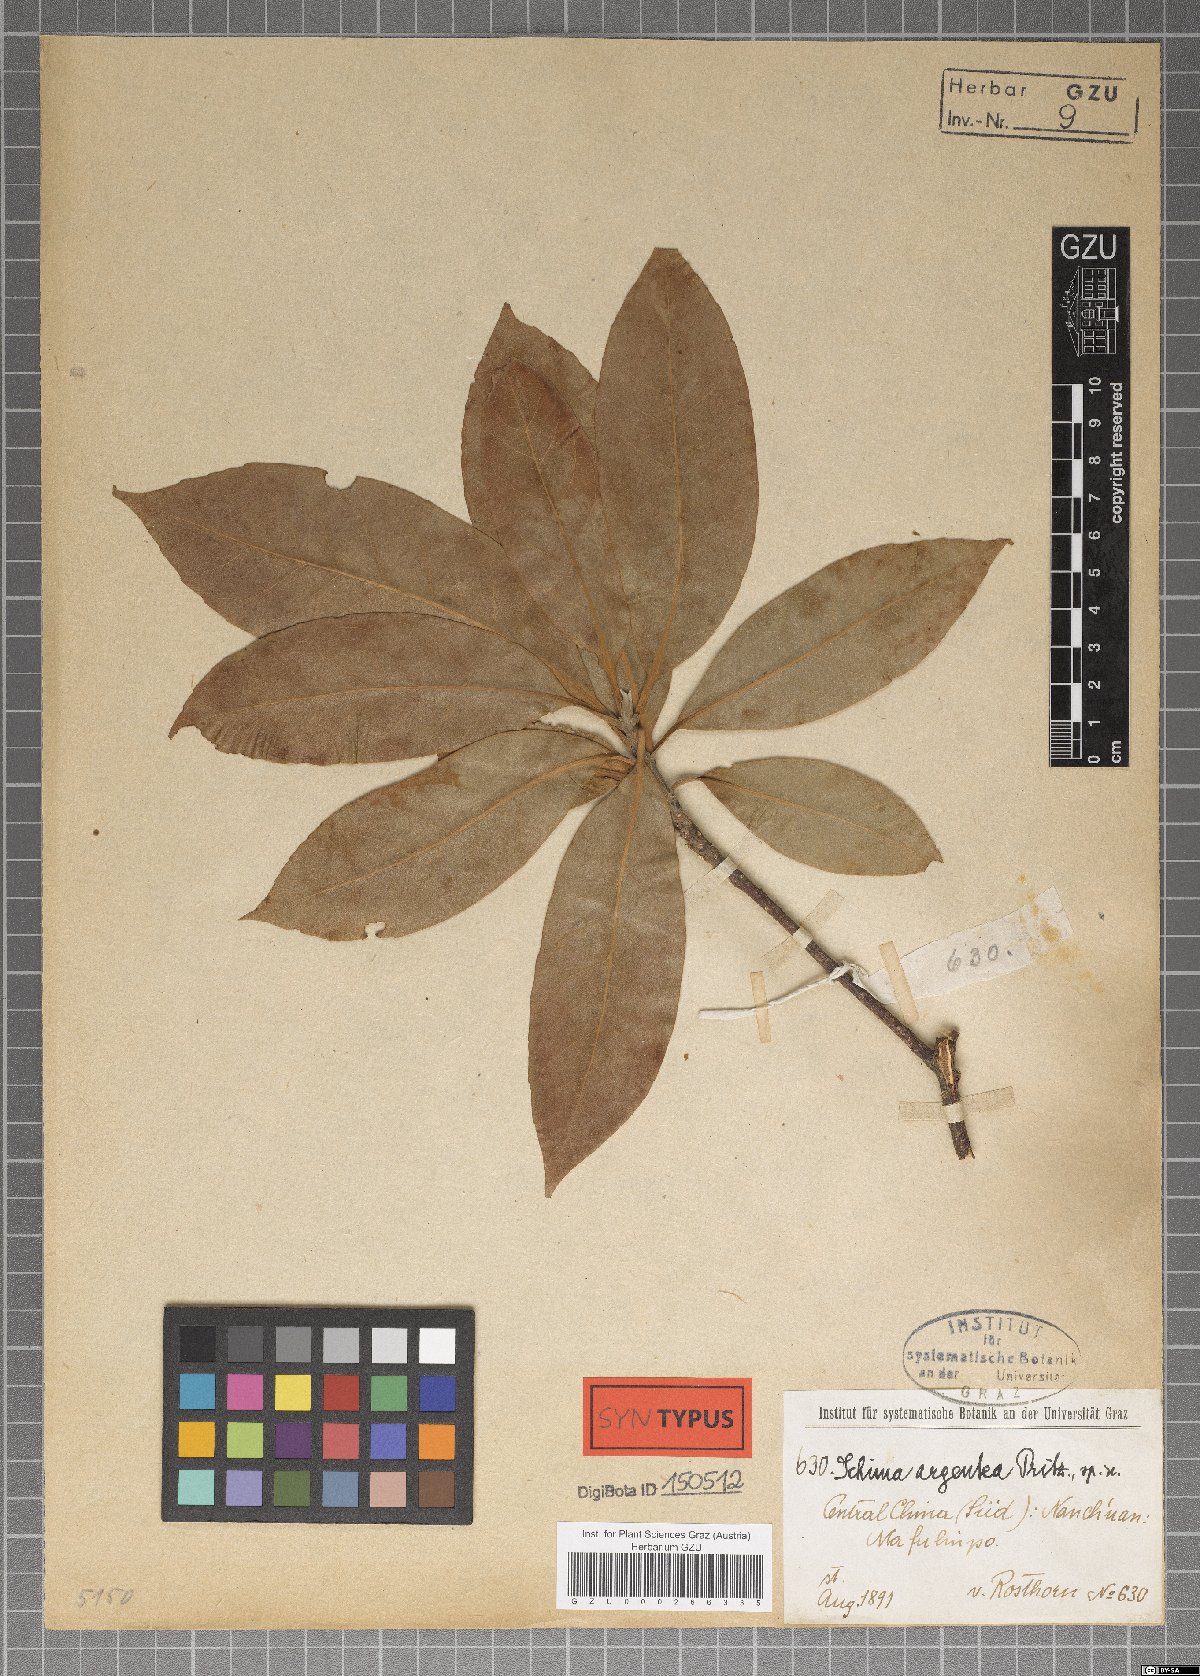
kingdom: Plantae
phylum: Tracheophyta
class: Magnoliopsida
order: Ericales
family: Theaceae
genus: Schima
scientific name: Schima argentea
